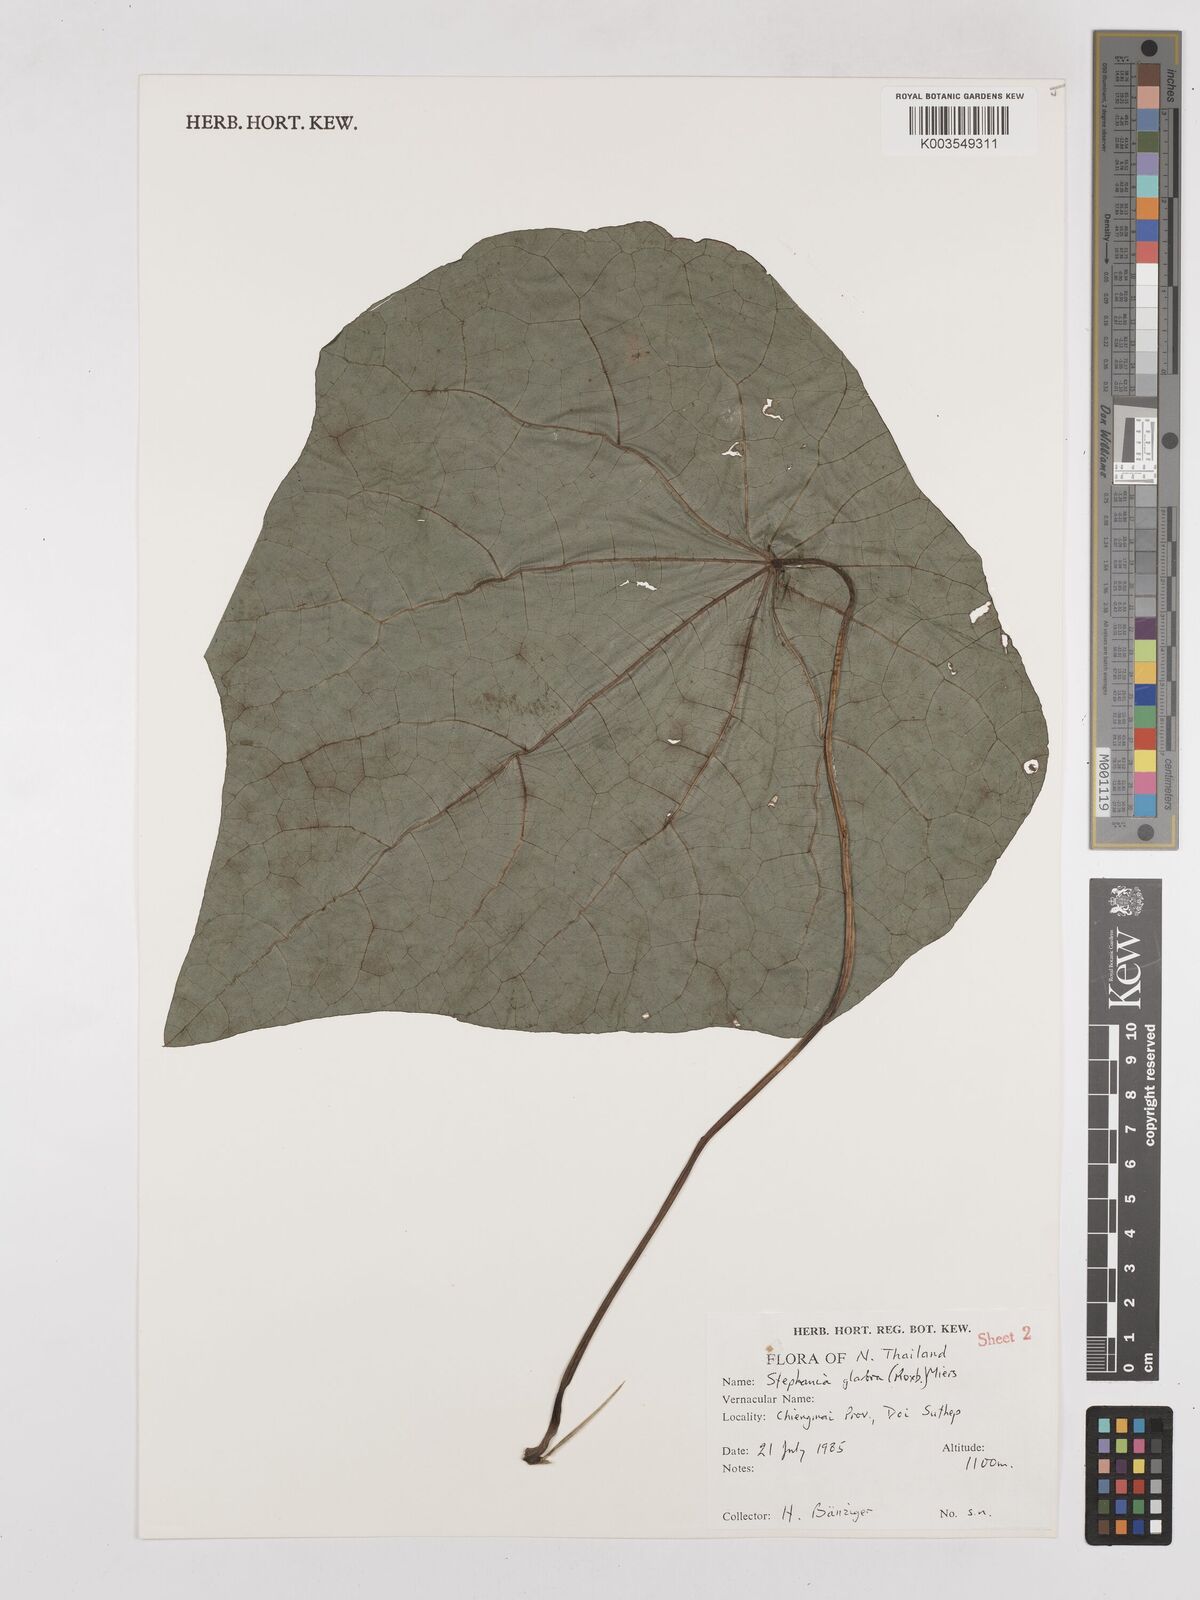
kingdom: Plantae
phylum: Tracheophyta
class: Magnoliopsida
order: Ranunculales
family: Menispermaceae
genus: Stephania
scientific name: Stephania rotunda
